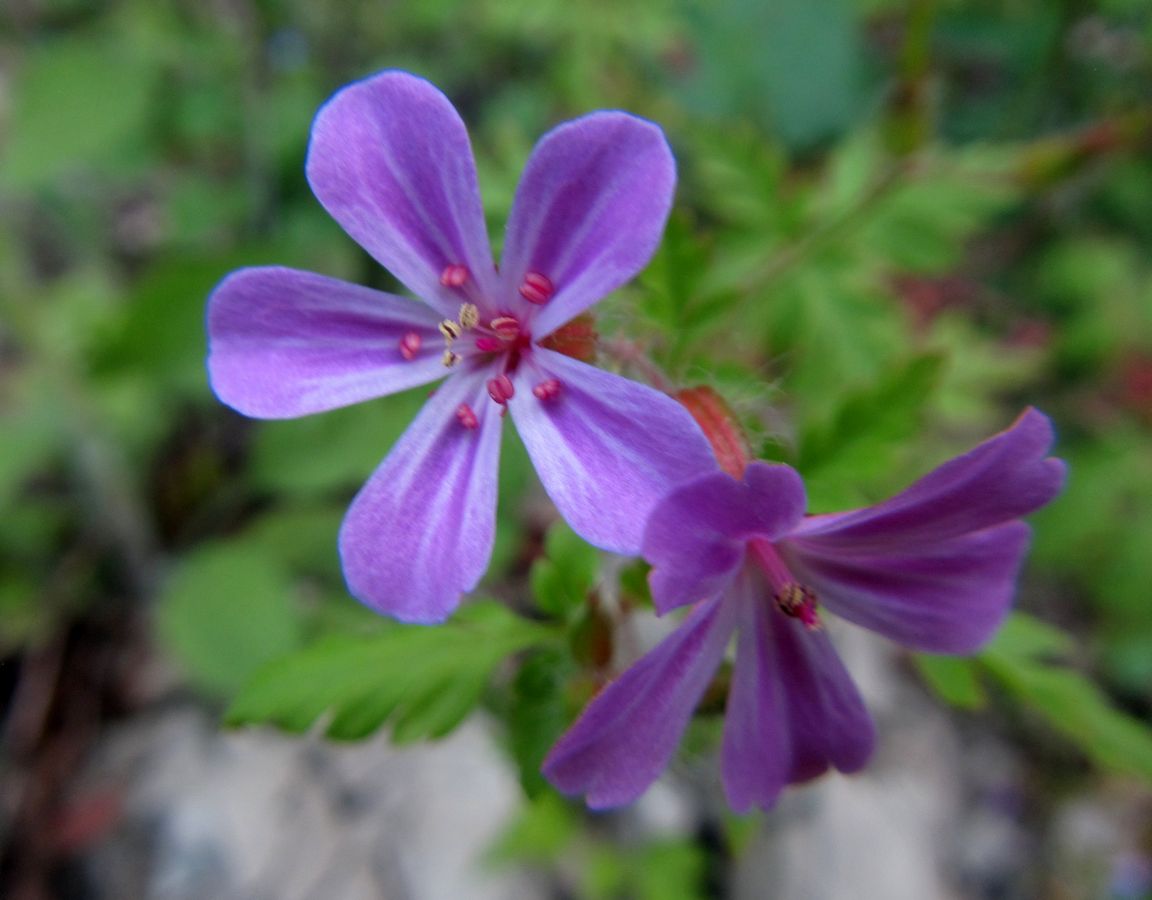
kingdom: Plantae
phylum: Tracheophyta
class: Magnoliopsida
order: Geraniales
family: Geraniaceae
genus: Geranium
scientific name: Geranium robertianum
